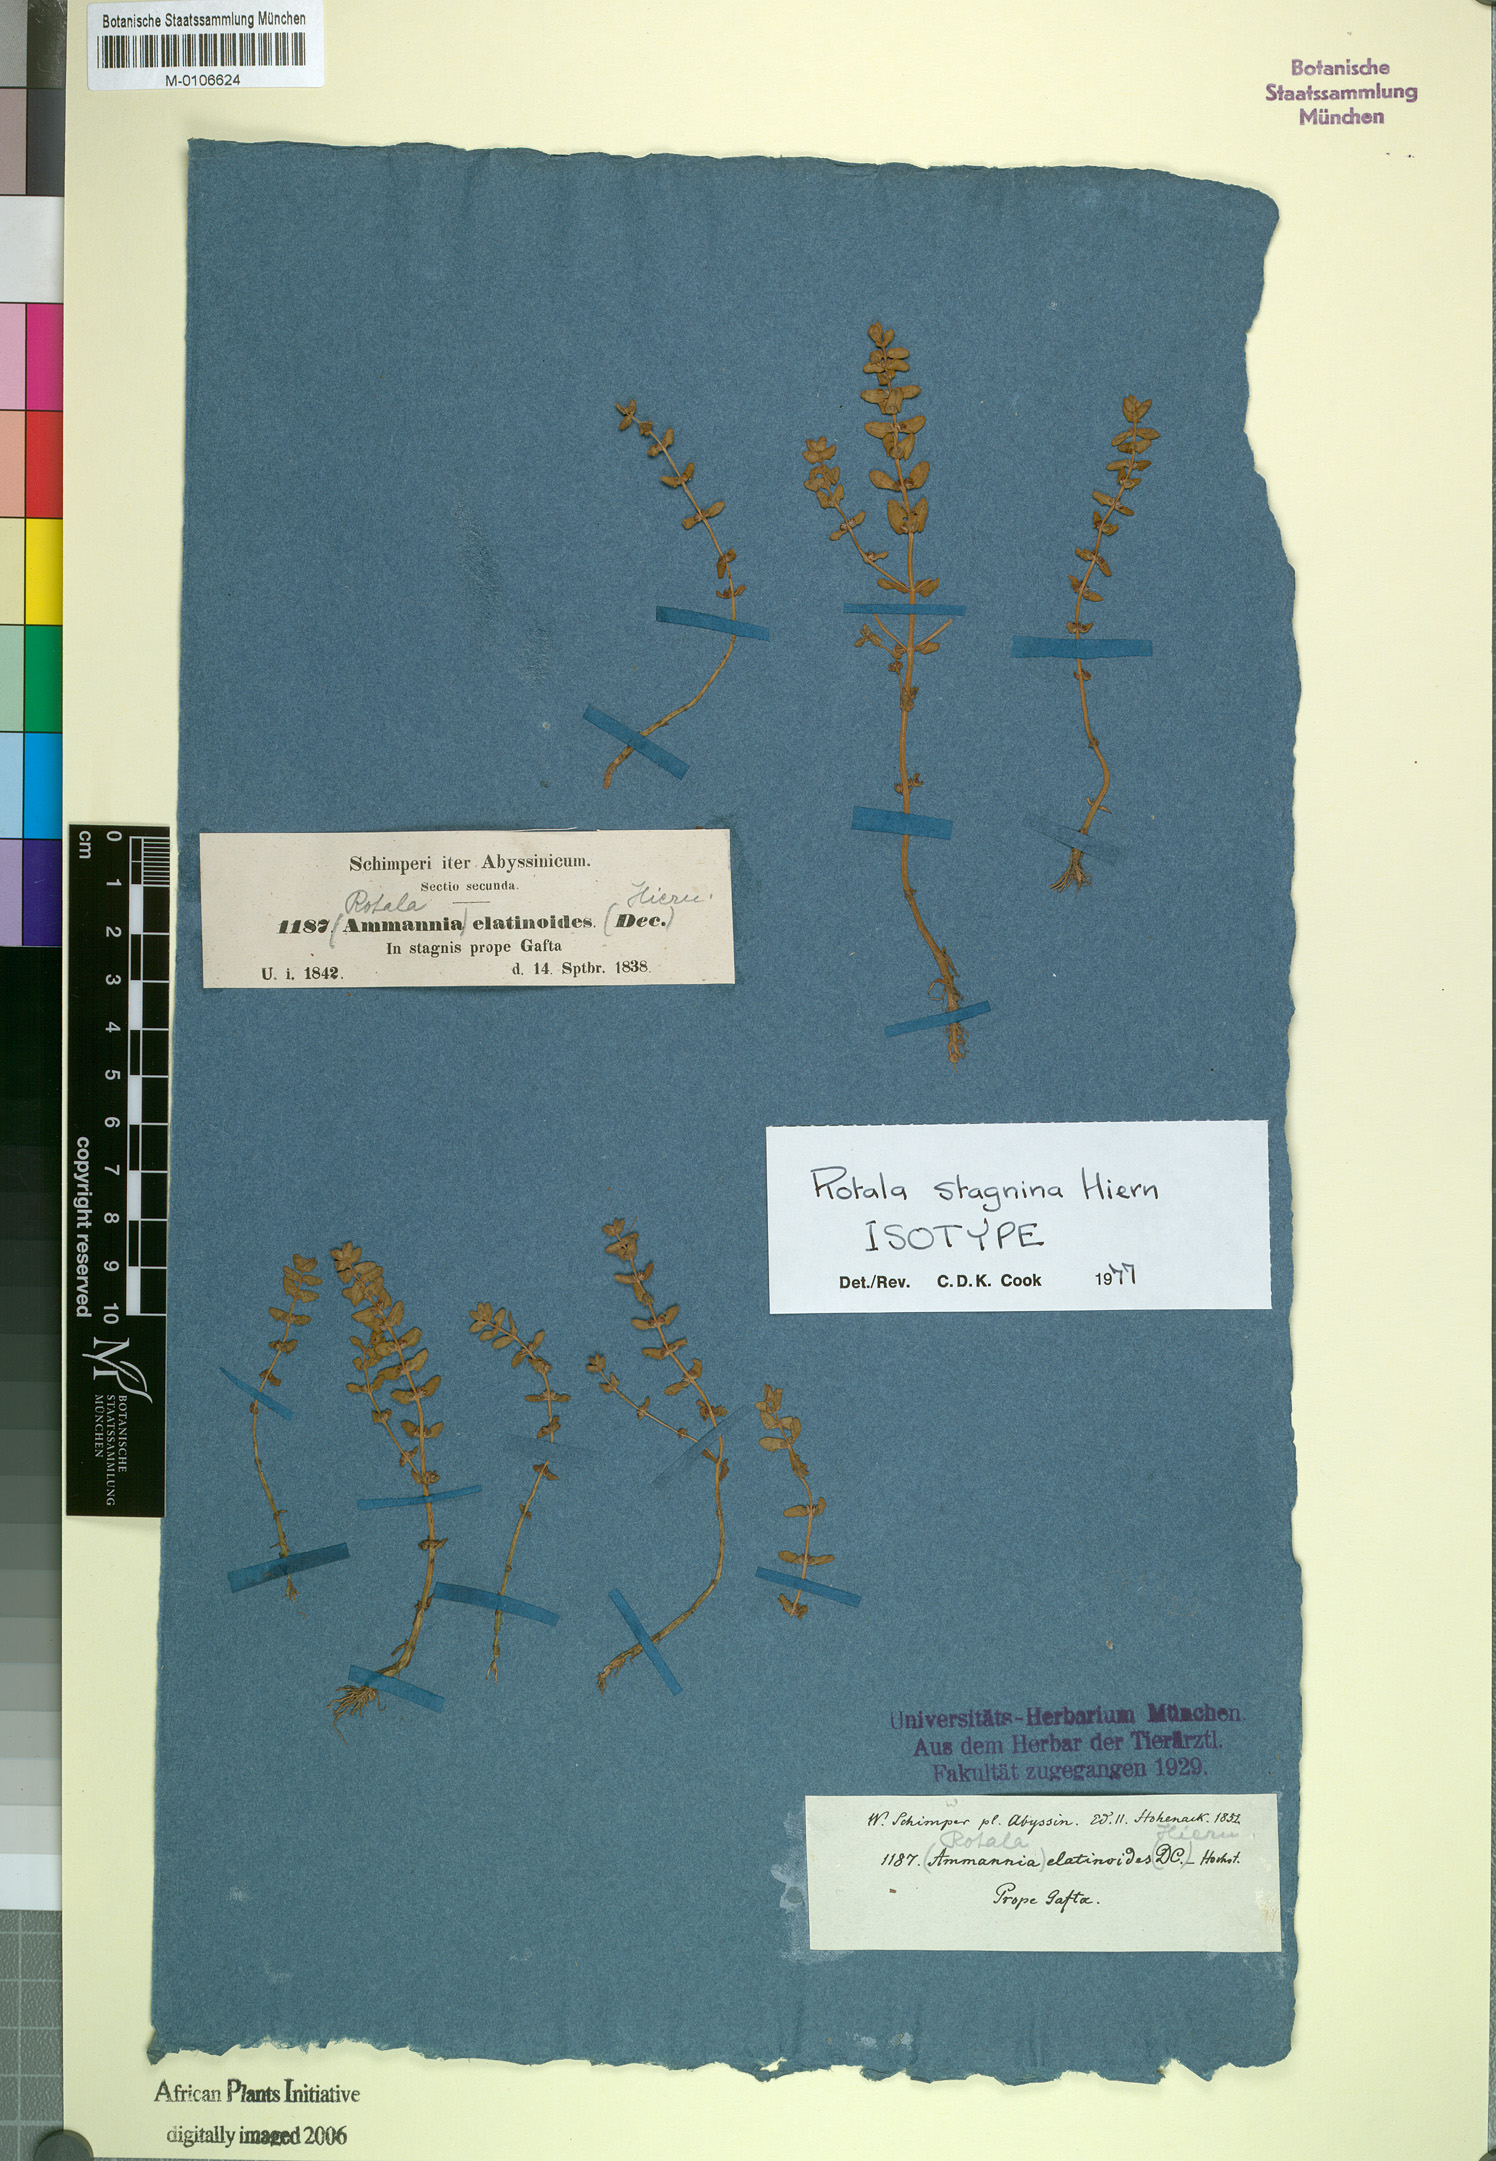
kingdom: Plantae
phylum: Tracheophyta
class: Magnoliopsida
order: Myrtales
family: Lythraceae
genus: Rotala
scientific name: Rotala stagnina
